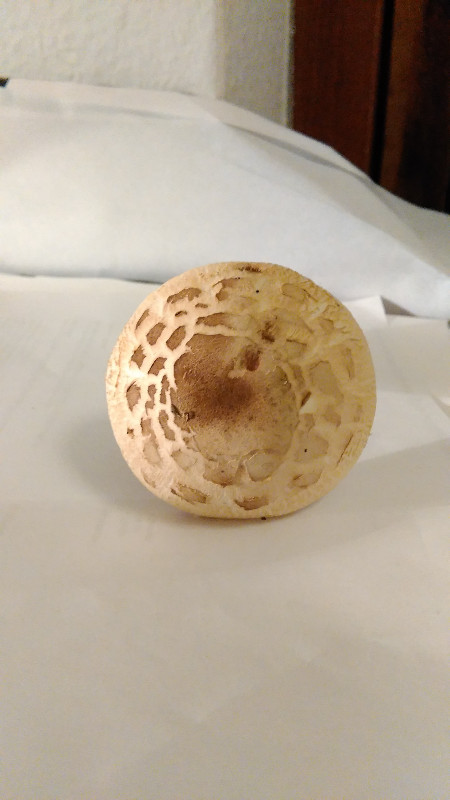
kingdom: Fungi
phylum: Basidiomycota
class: Agaricomycetes
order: Agaricales
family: Agaricaceae
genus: Chlorophyllum
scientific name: Chlorophyllum rhacodes
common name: ægte rabarberhat
